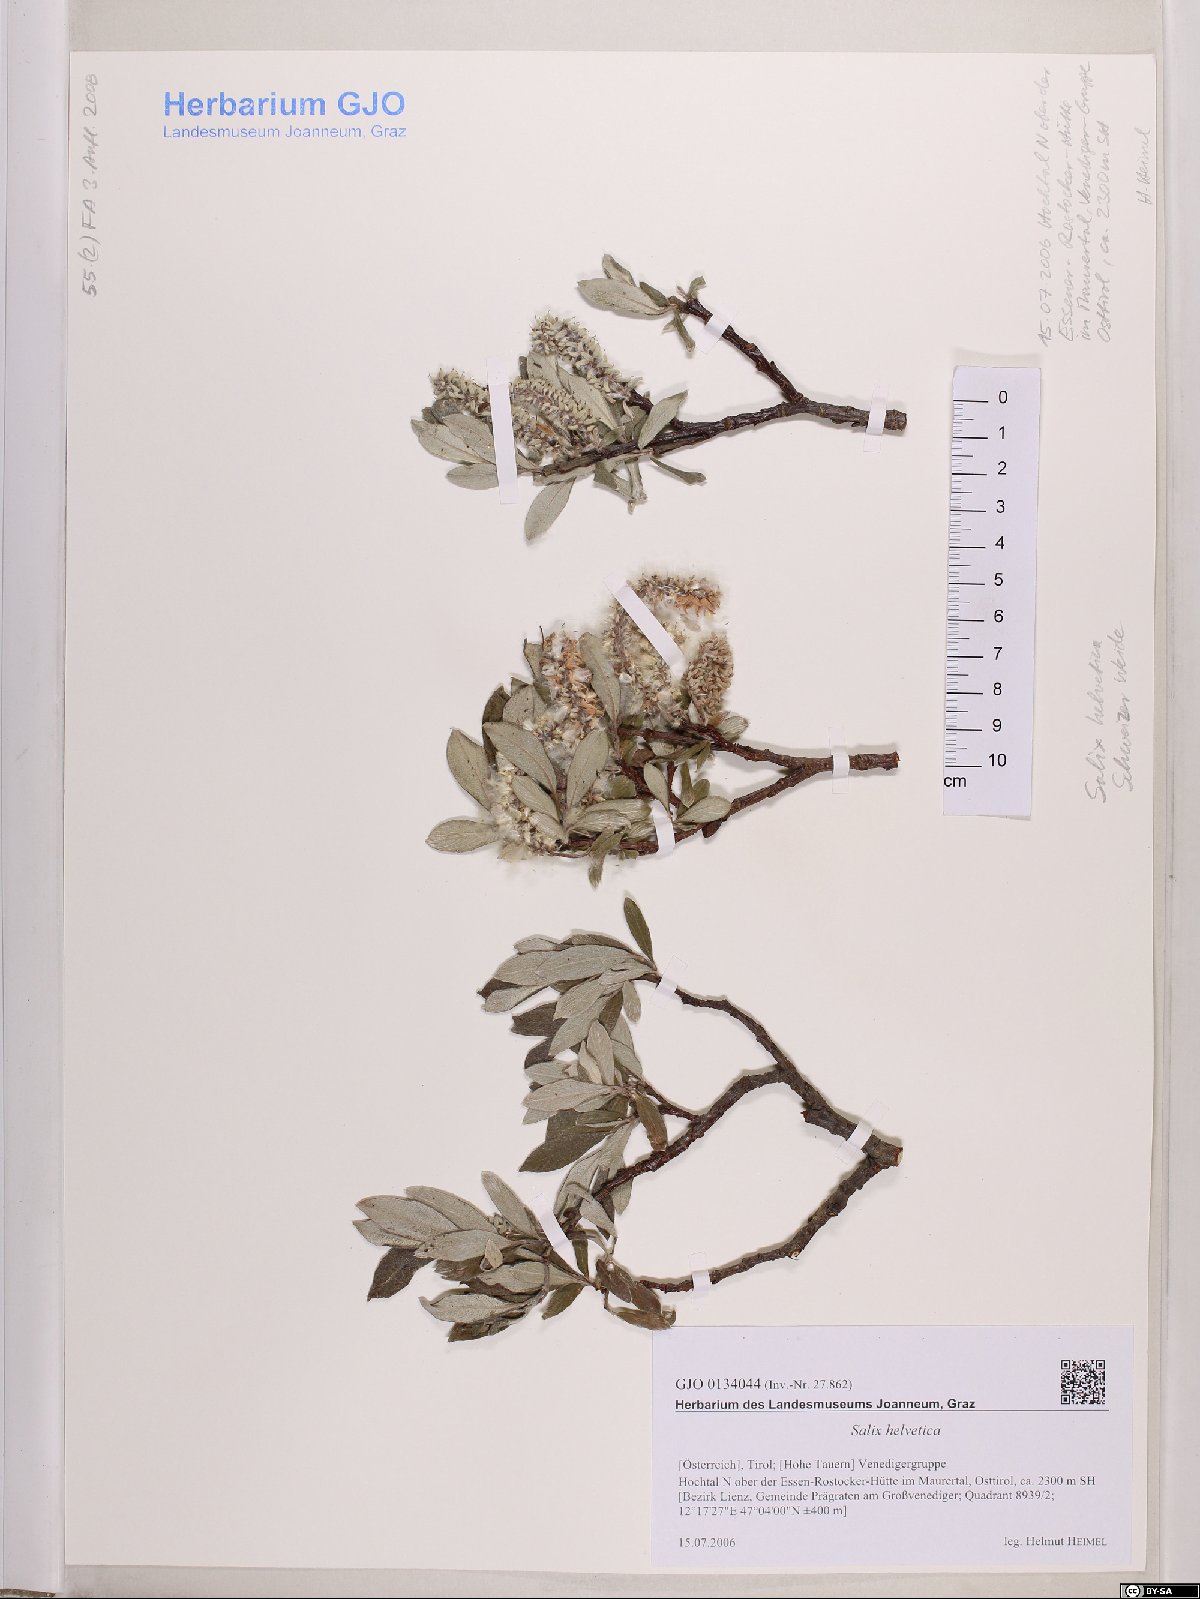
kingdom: Plantae
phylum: Tracheophyta
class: Magnoliopsida
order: Malpighiales
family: Salicaceae
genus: Salix
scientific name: Salix helvetica
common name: Swiss willow
